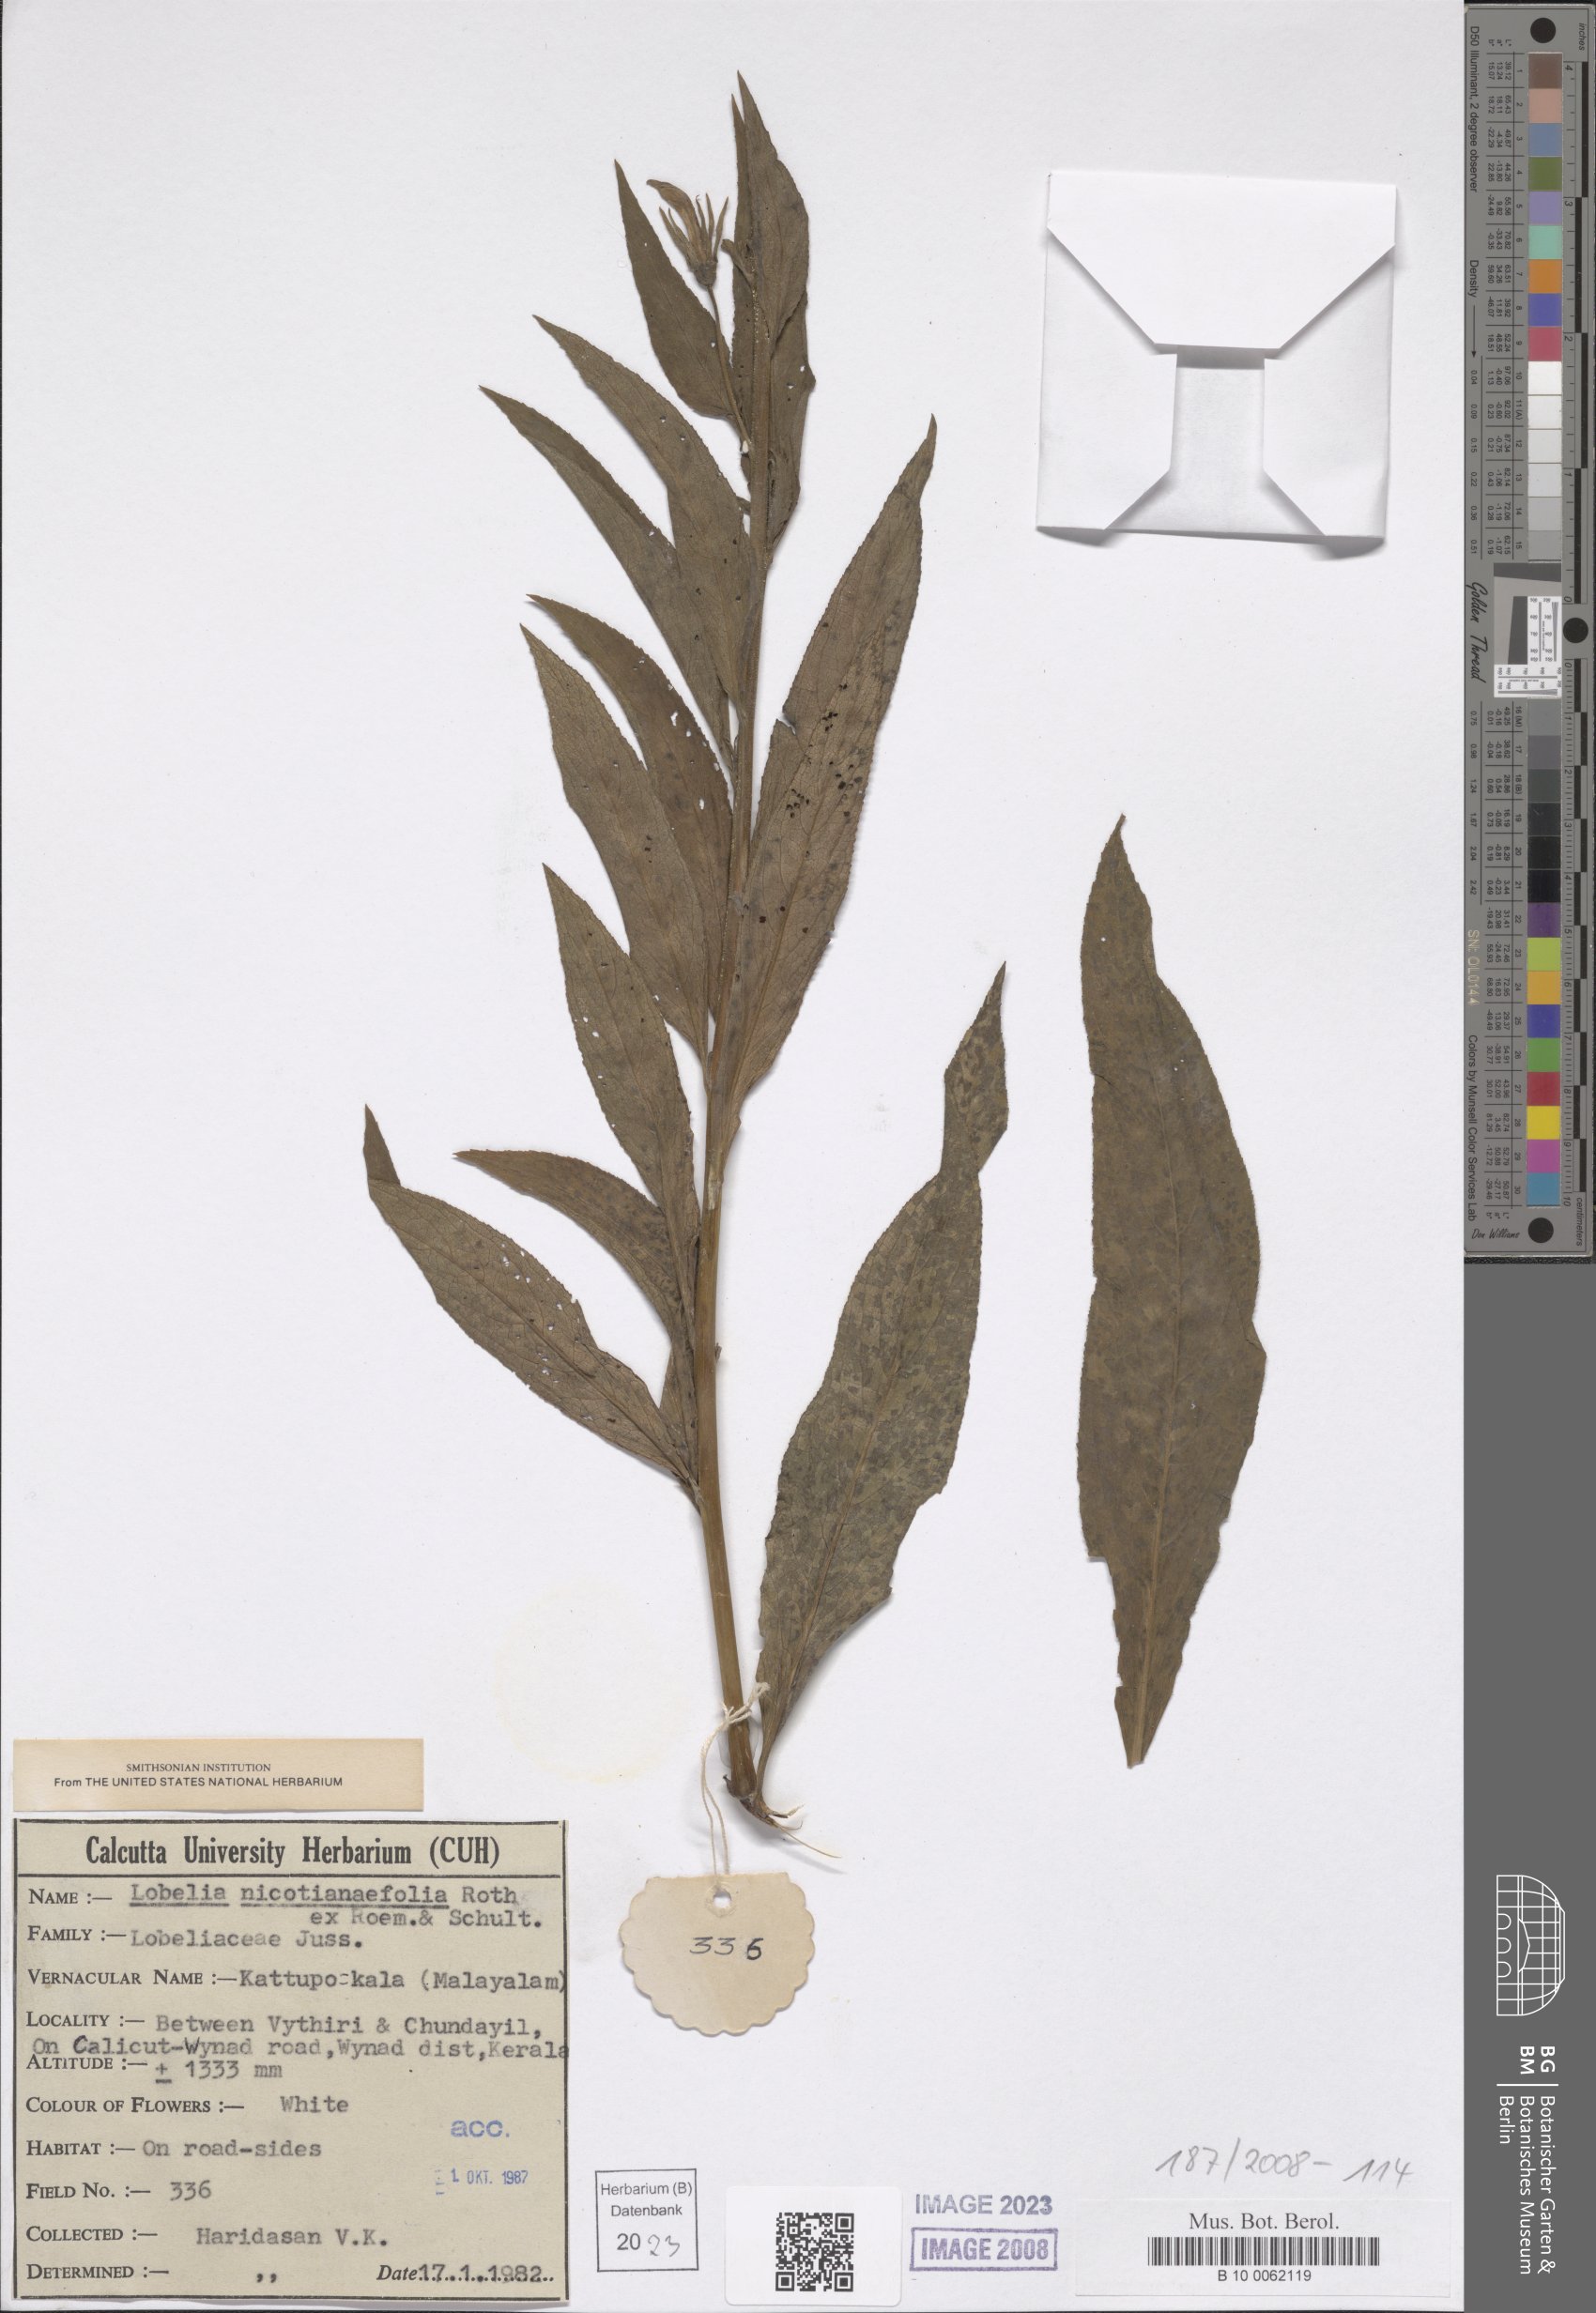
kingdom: Plantae
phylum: Tracheophyta
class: Magnoliopsida
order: Asterales
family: Campanulaceae
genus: Lobelia
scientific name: Lobelia nicotianifolia
